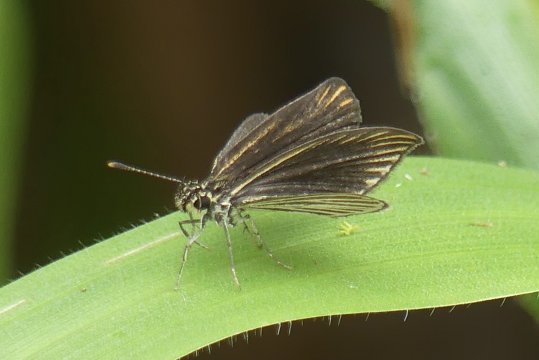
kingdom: Animalia
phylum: Arthropoda
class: Insecta
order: Lepidoptera
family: Hesperiidae
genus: Apaustus
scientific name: Apaustus gracilis
